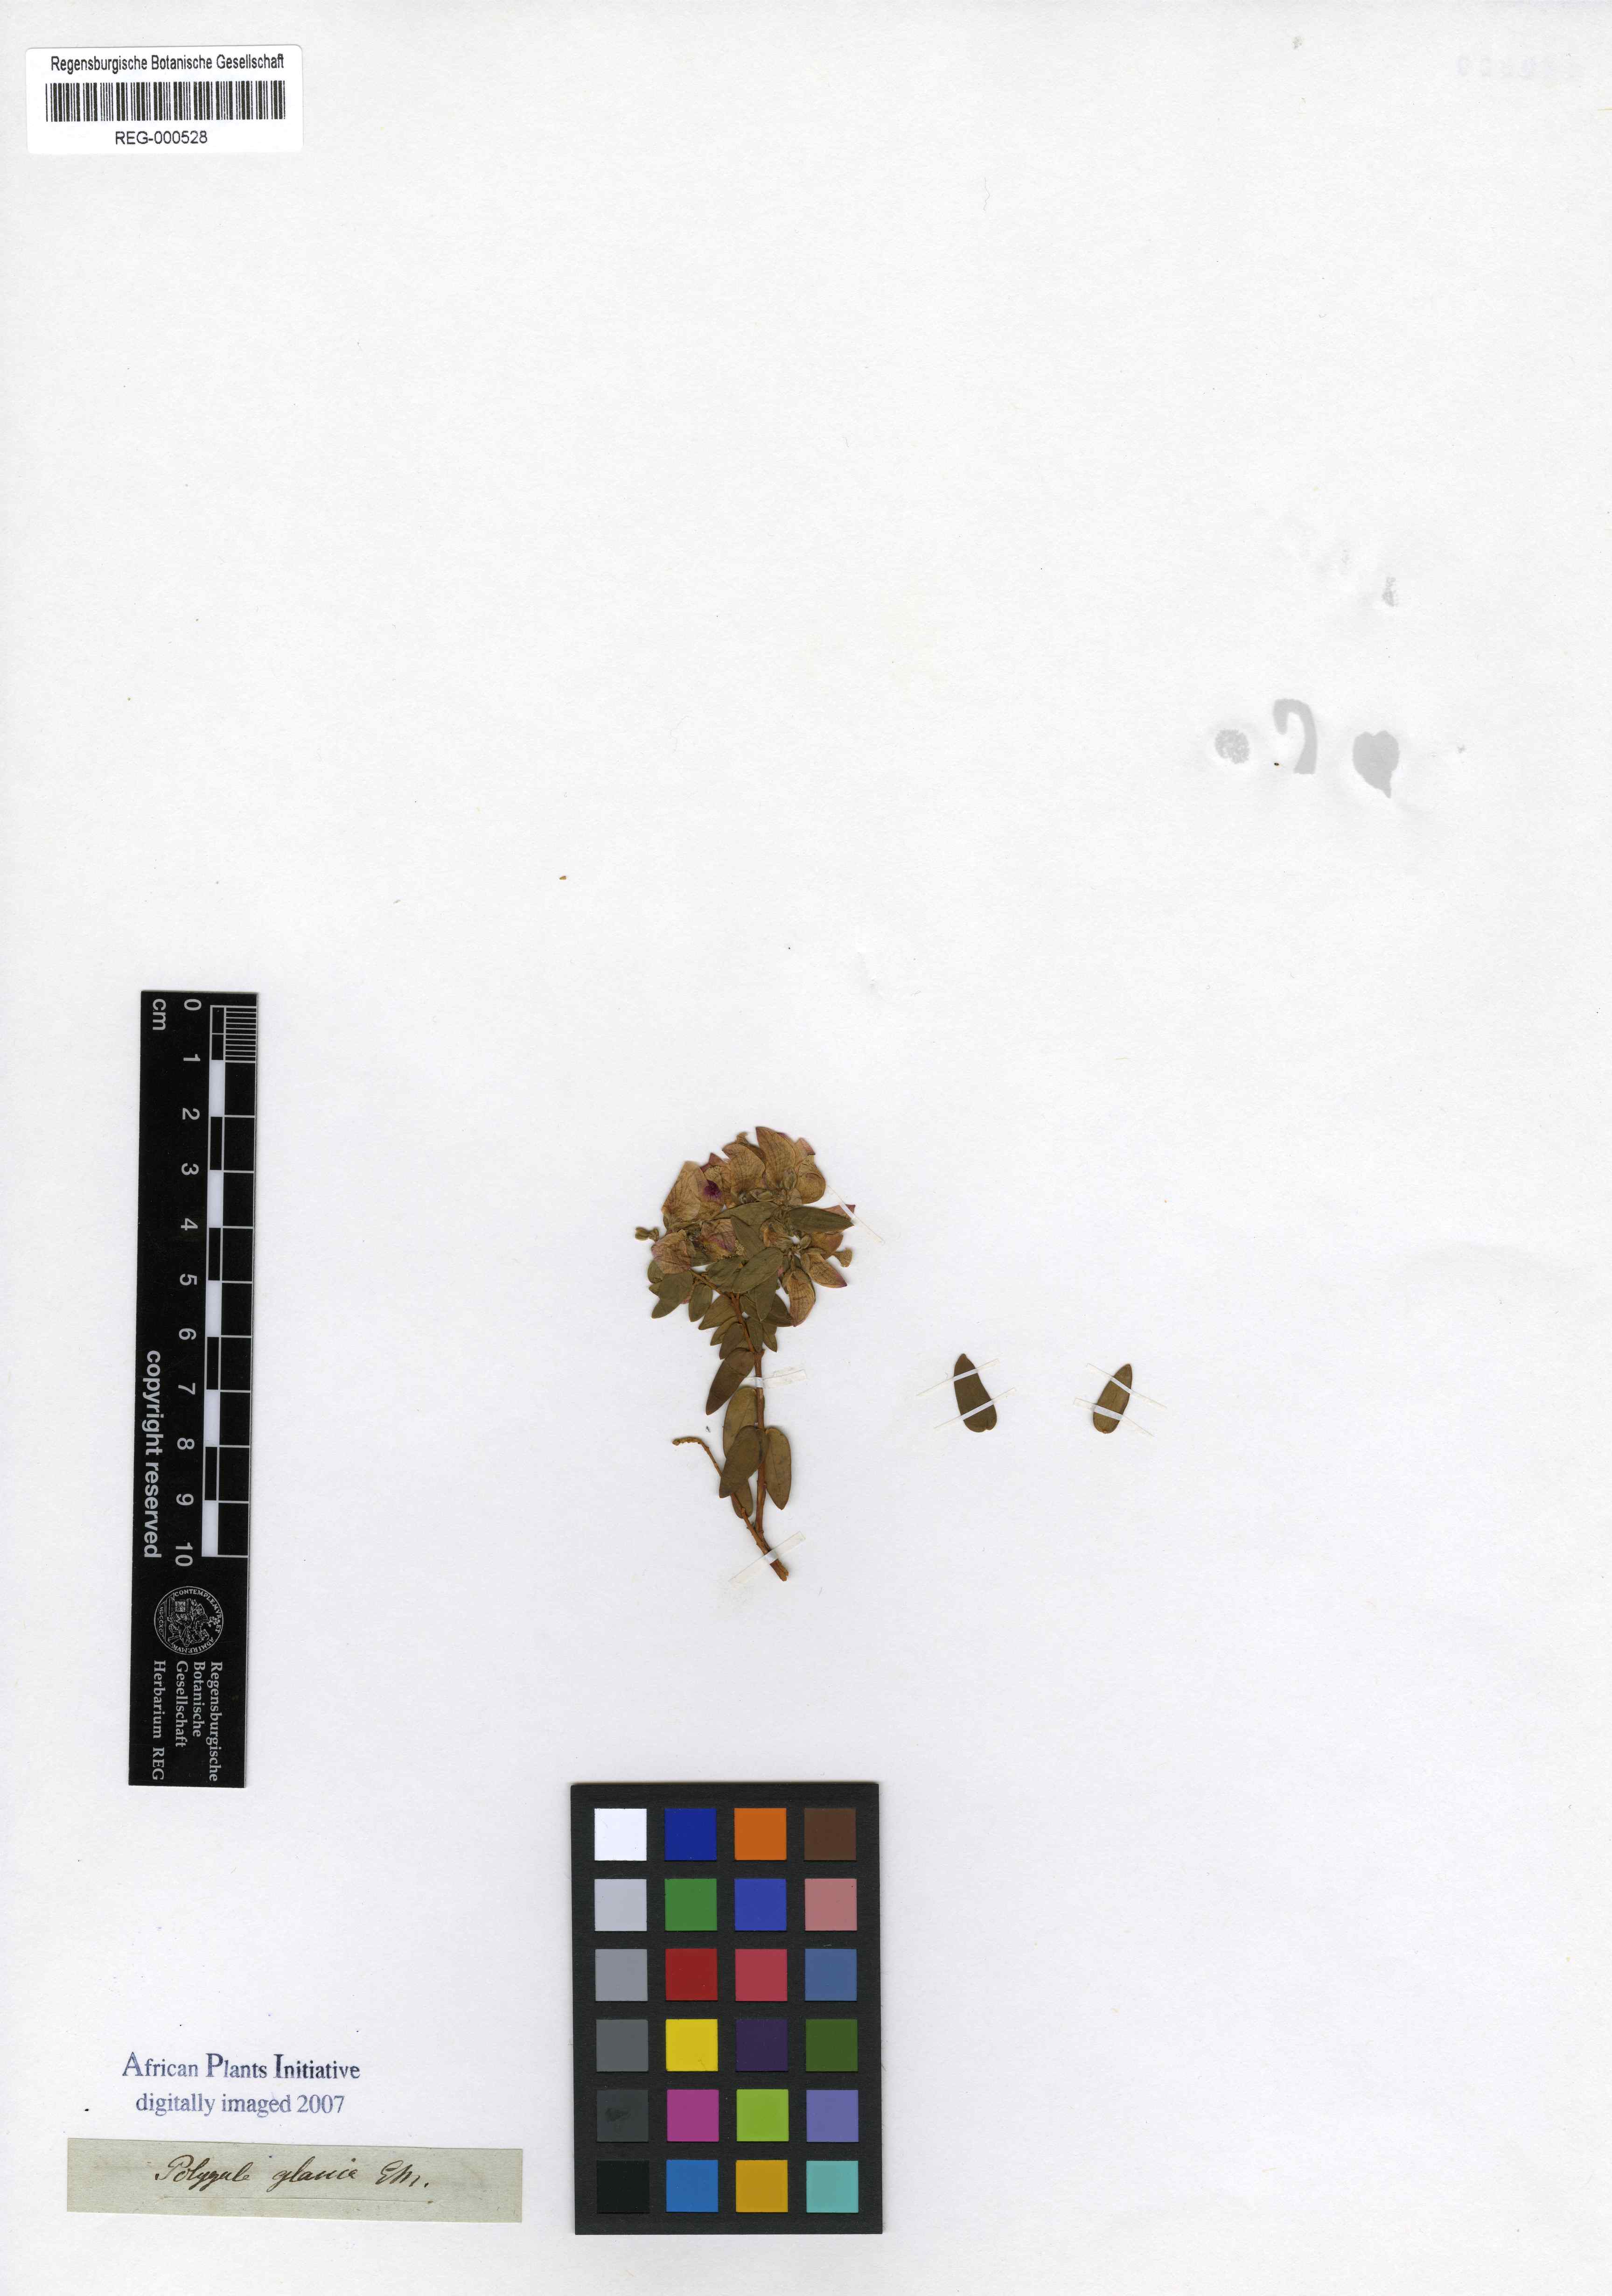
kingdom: Plantae
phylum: Tracheophyta
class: Magnoliopsida
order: Fabales
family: Polygalaceae
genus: Polygala
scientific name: Polygala fruticosa
